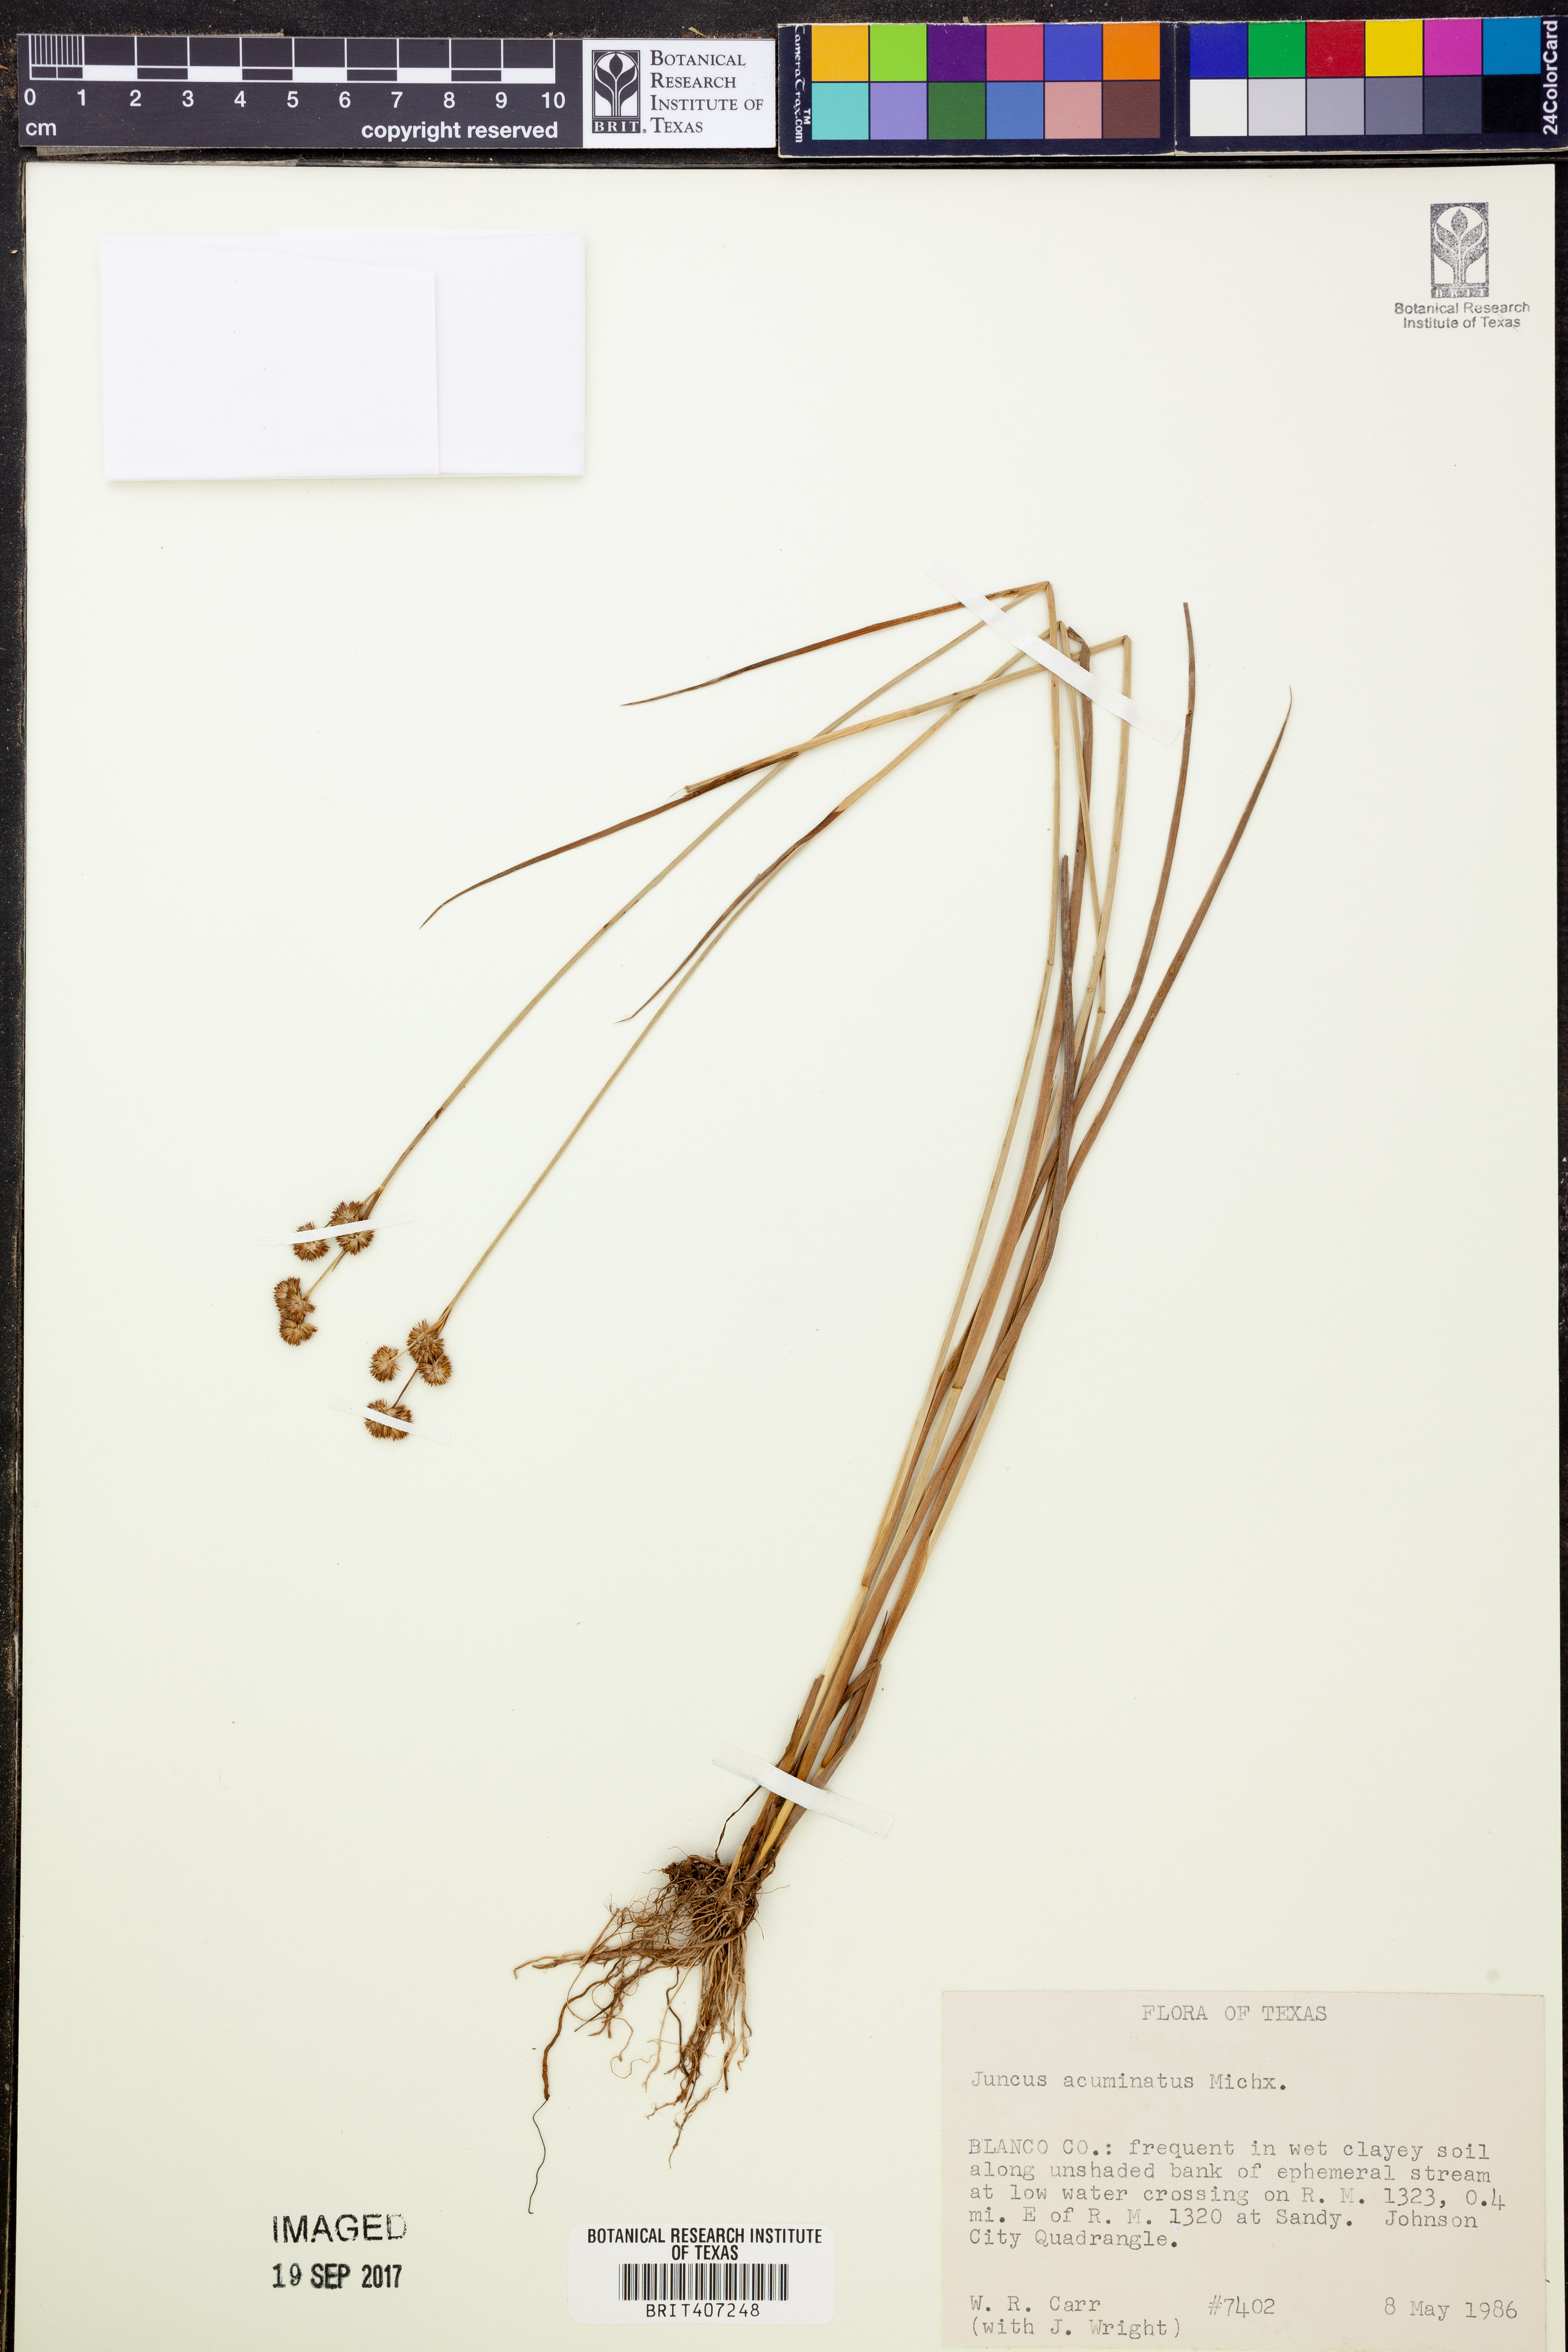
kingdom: Plantae
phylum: Tracheophyta
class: Liliopsida
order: Poales
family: Juncaceae
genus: Juncus
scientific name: Juncus acuminatus
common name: Knotty-leaved rush
